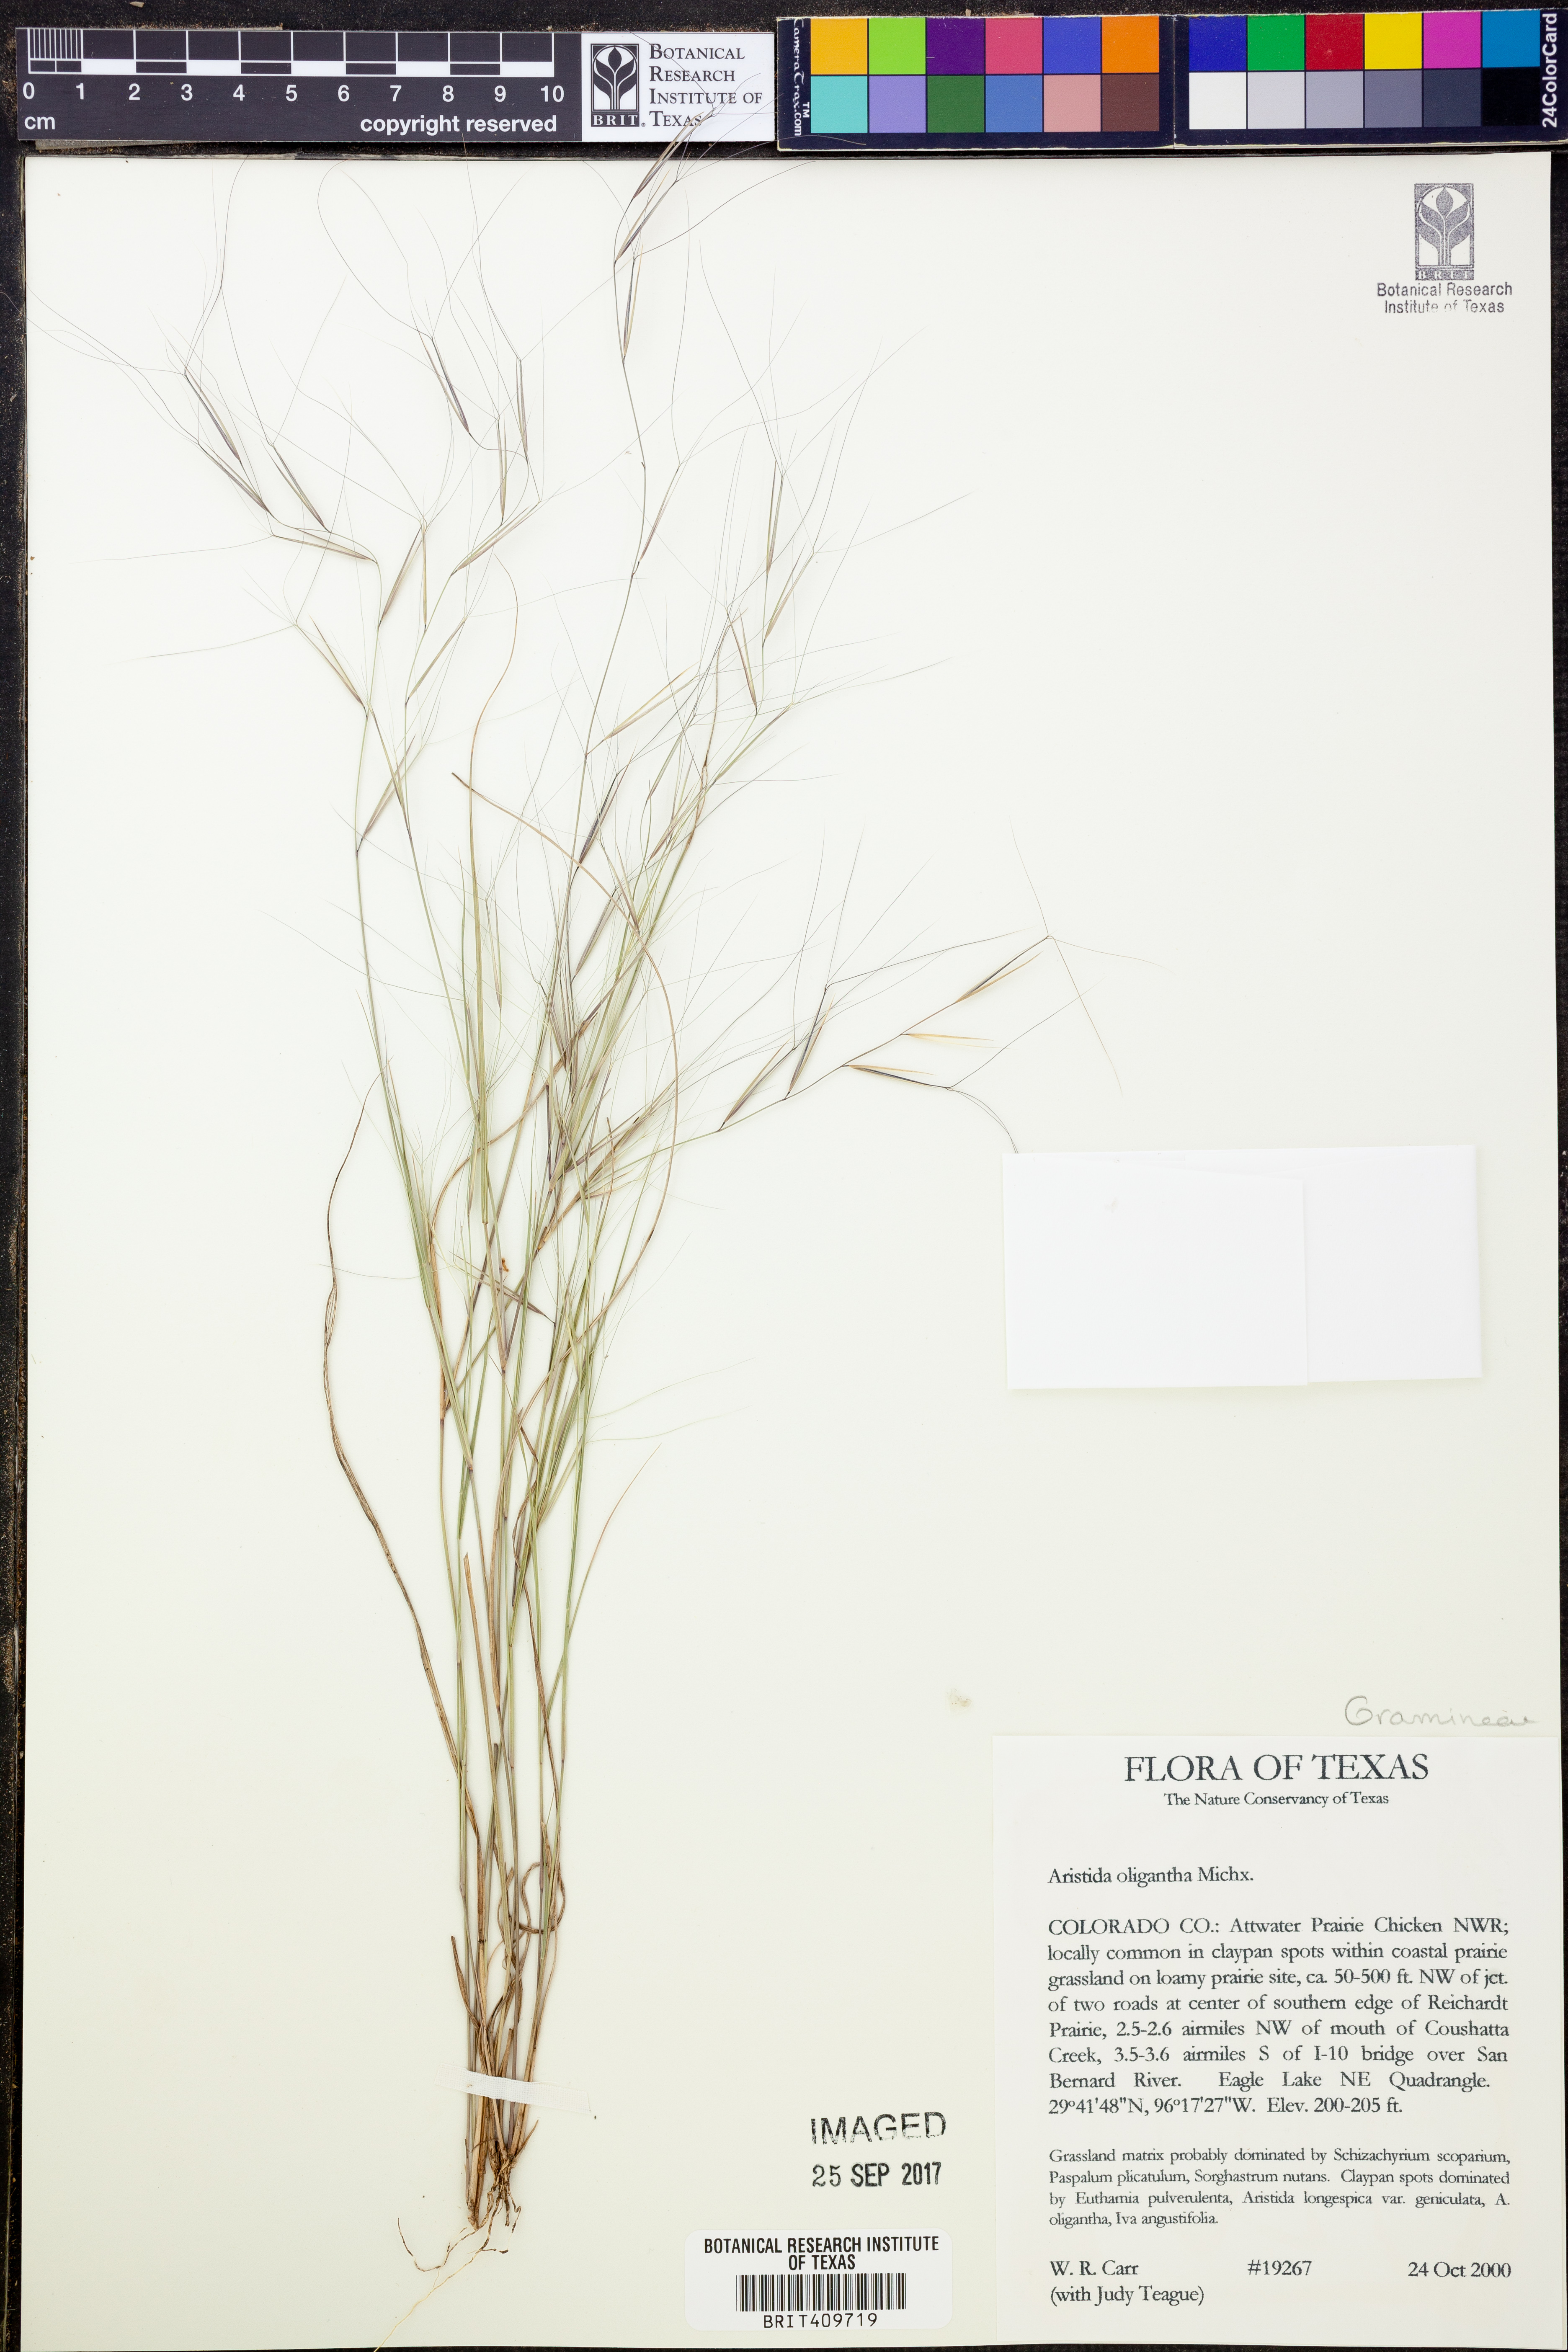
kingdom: Plantae
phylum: Tracheophyta
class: Liliopsida
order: Poales
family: Poaceae
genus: Aristida
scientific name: Aristida oligantha
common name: Few-flowered aristida
